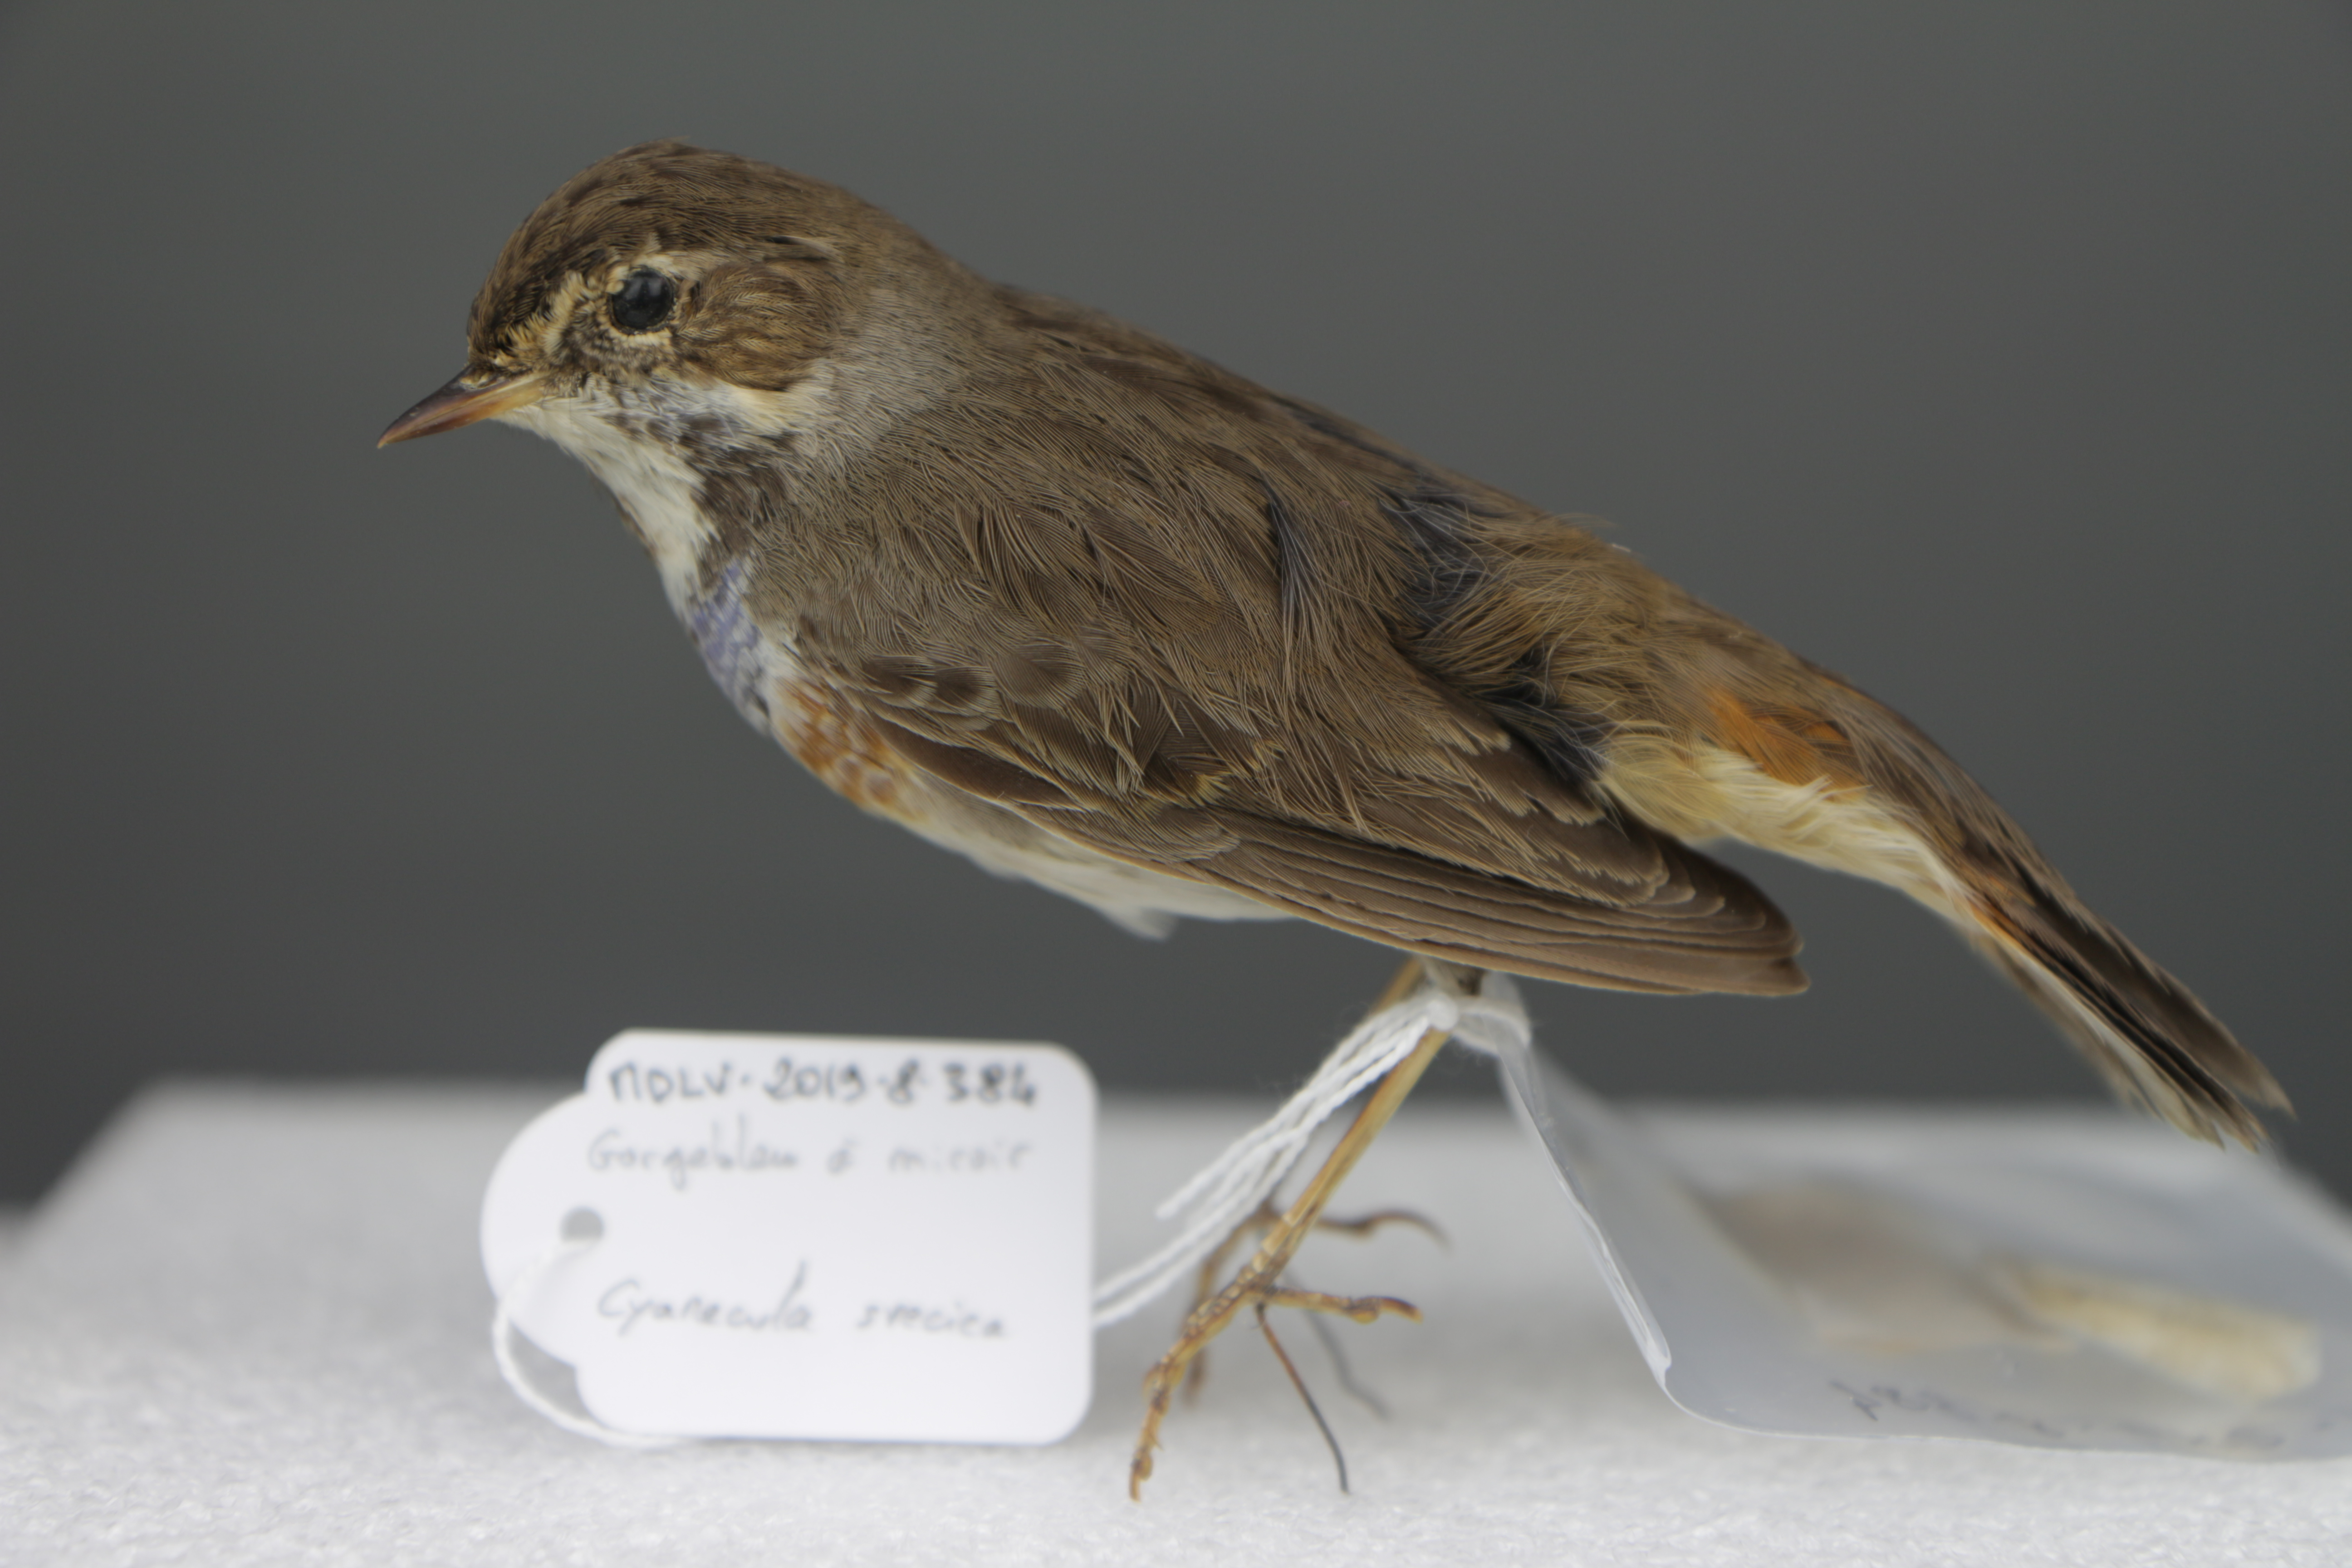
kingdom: Animalia
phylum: Chordata
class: Aves
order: Passeriformes
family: Muscicapidae
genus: Luscinia
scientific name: Luscinia svecica
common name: Bluethroat
